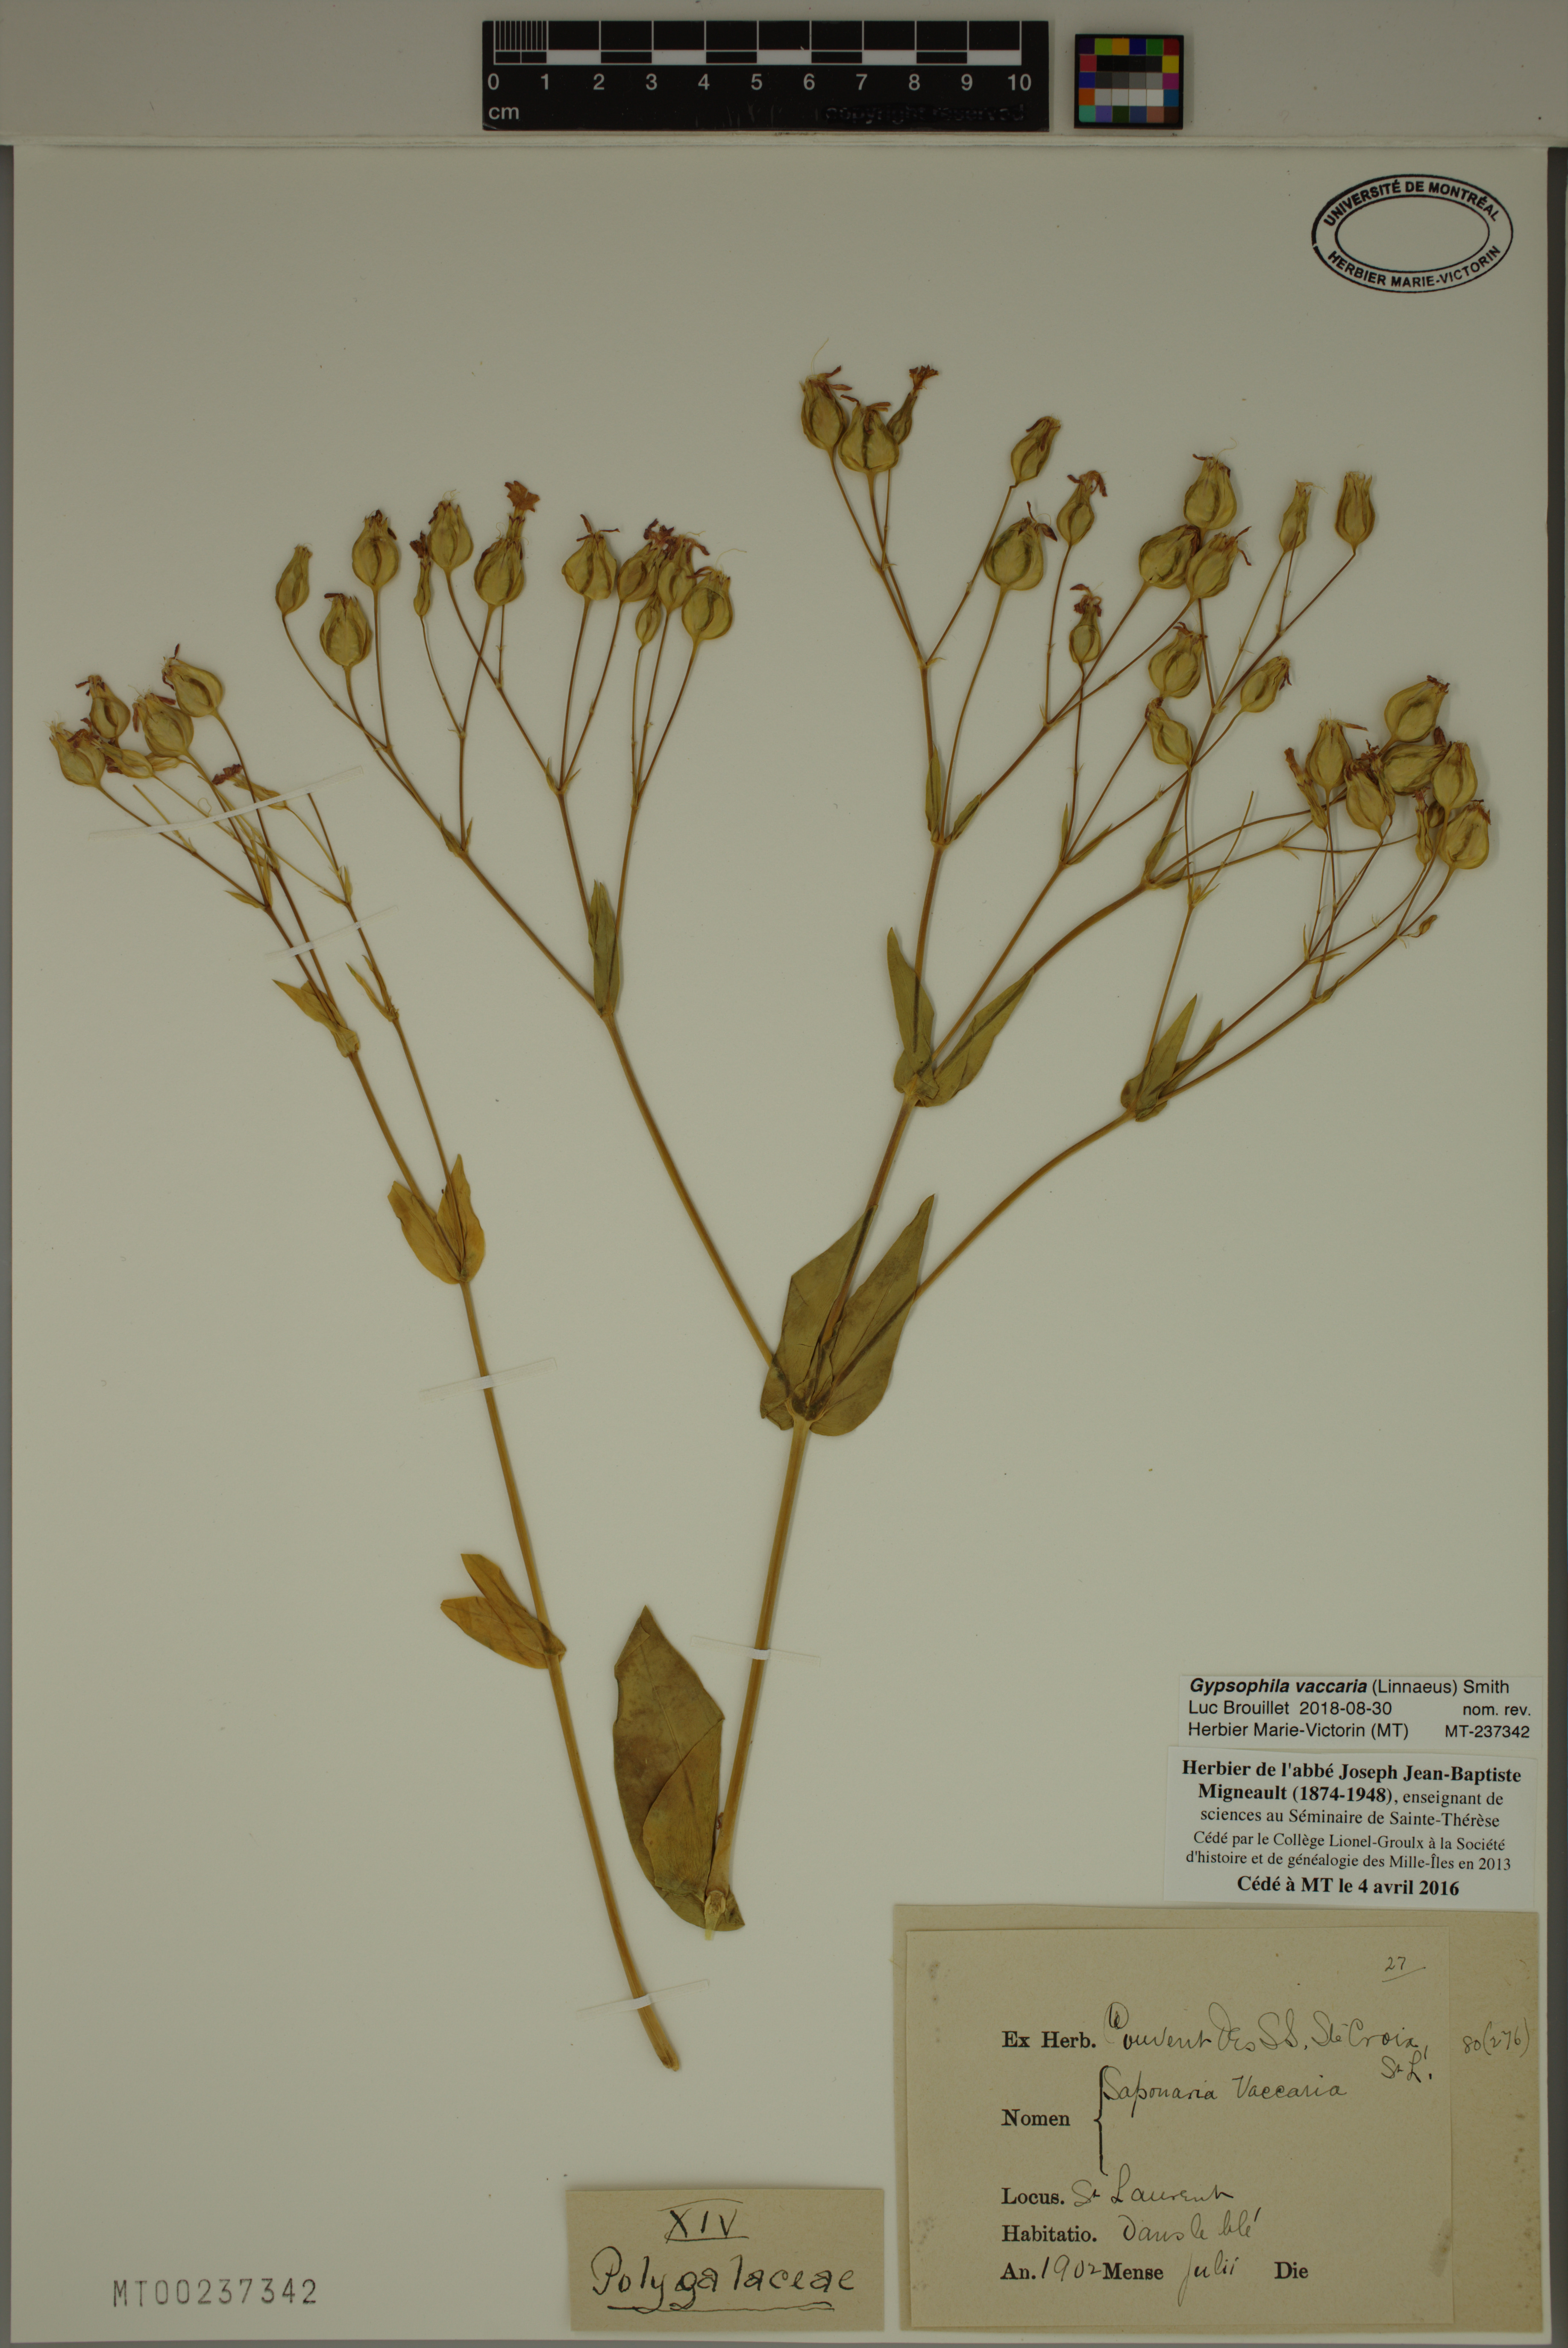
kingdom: Plantae
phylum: Tracheophyta
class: Magnoliopsida
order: Caryophyllales
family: Caryophyllaceae
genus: Gypsophila
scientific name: Gypsophila vaccaria
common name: Cow soapwort
